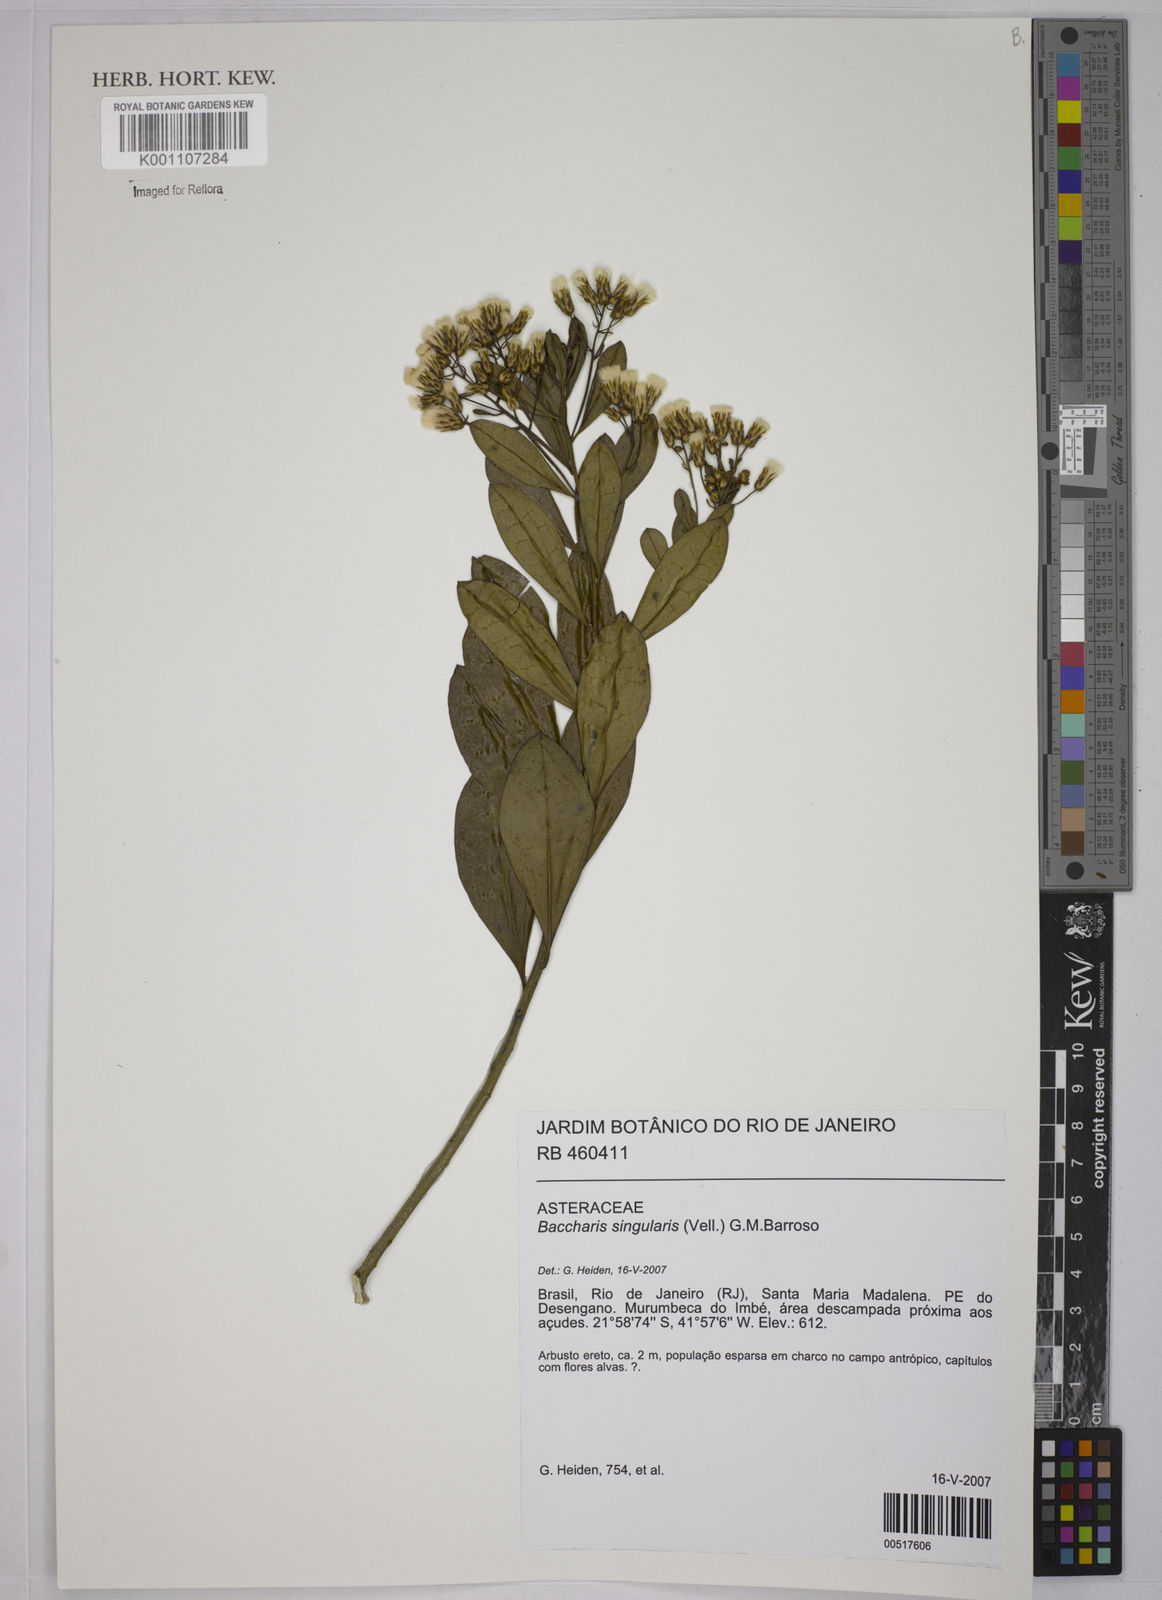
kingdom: Plantae
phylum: Tracheophyta
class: Magnoliopsida
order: Asterales
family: Asteraceae
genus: Baccharis
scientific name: Baccharis singularis
